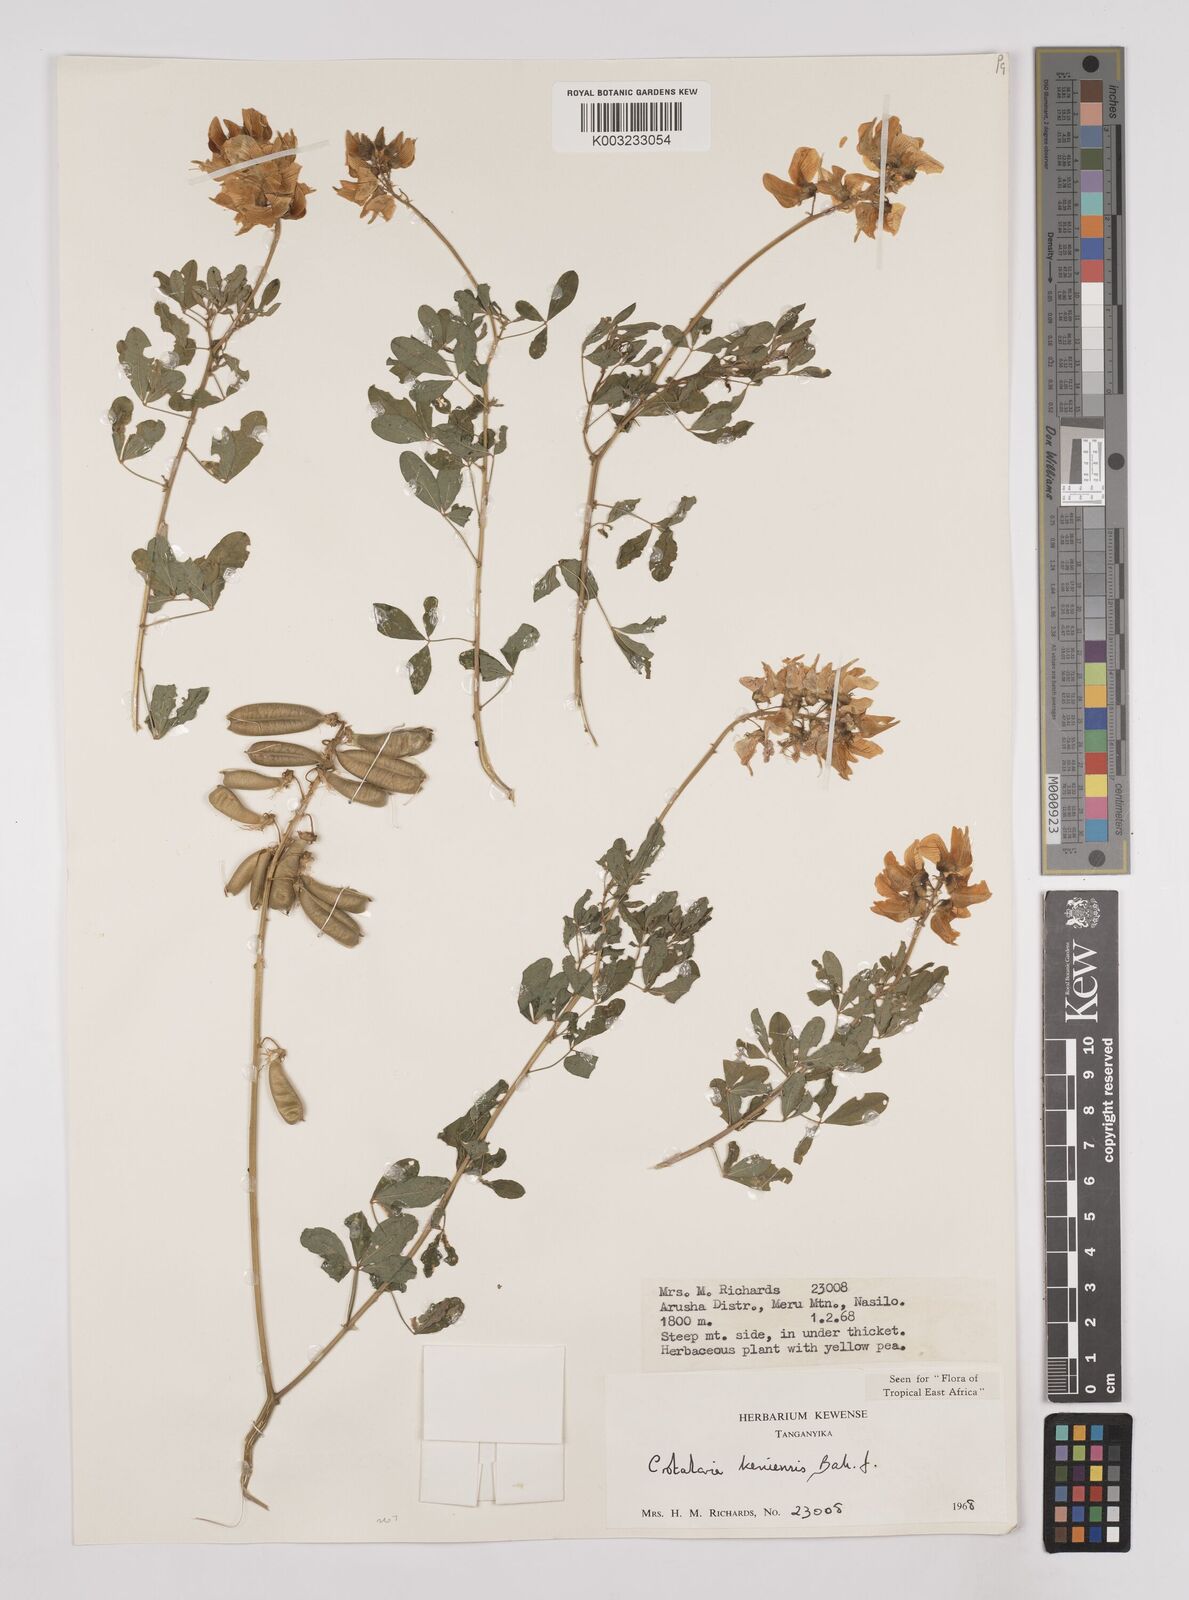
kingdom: Plantae
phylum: Tracheophyta
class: Magnoliopsida
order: Fabales
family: Fabaceae
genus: Crotalaria
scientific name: Crotalaria keniensis
